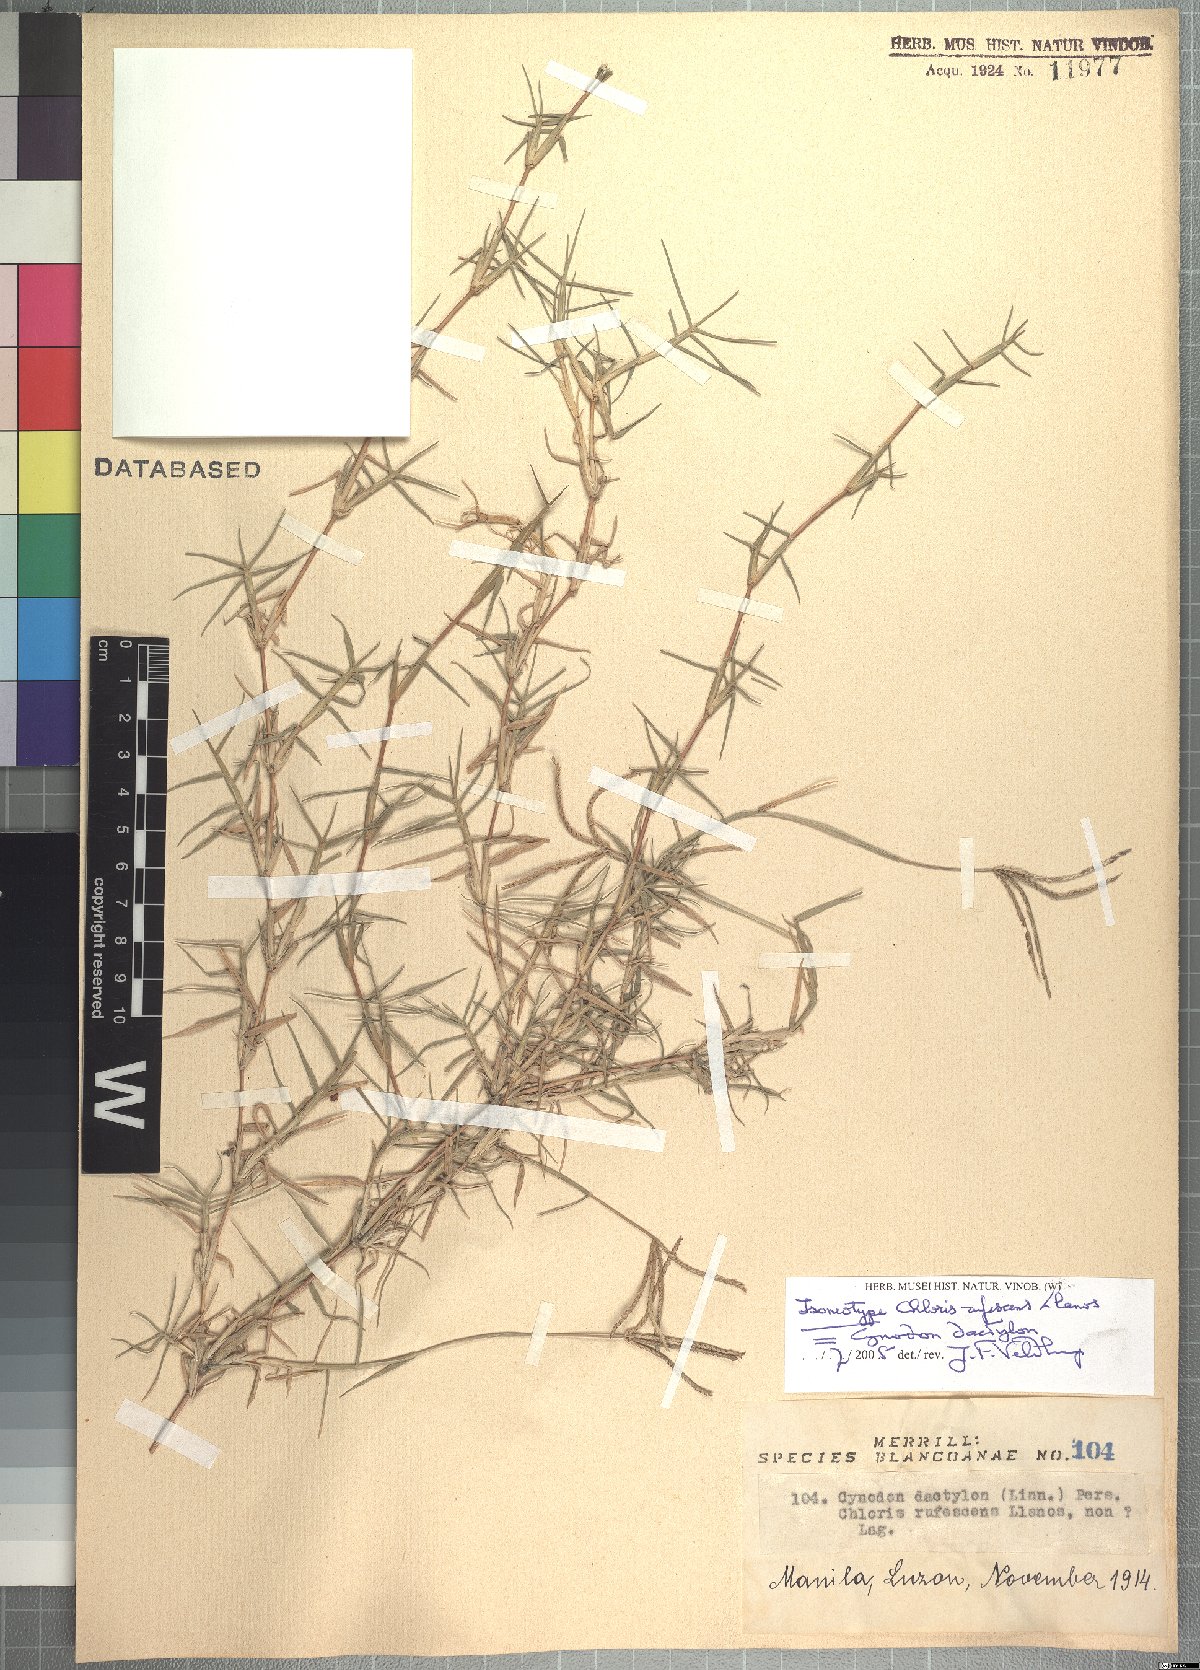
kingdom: Plantae
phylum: Tracheophyta
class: Liliopsida
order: Poales
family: Poaceae
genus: Cynodon
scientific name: Cynodon dactylon
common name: Bermuda grass
